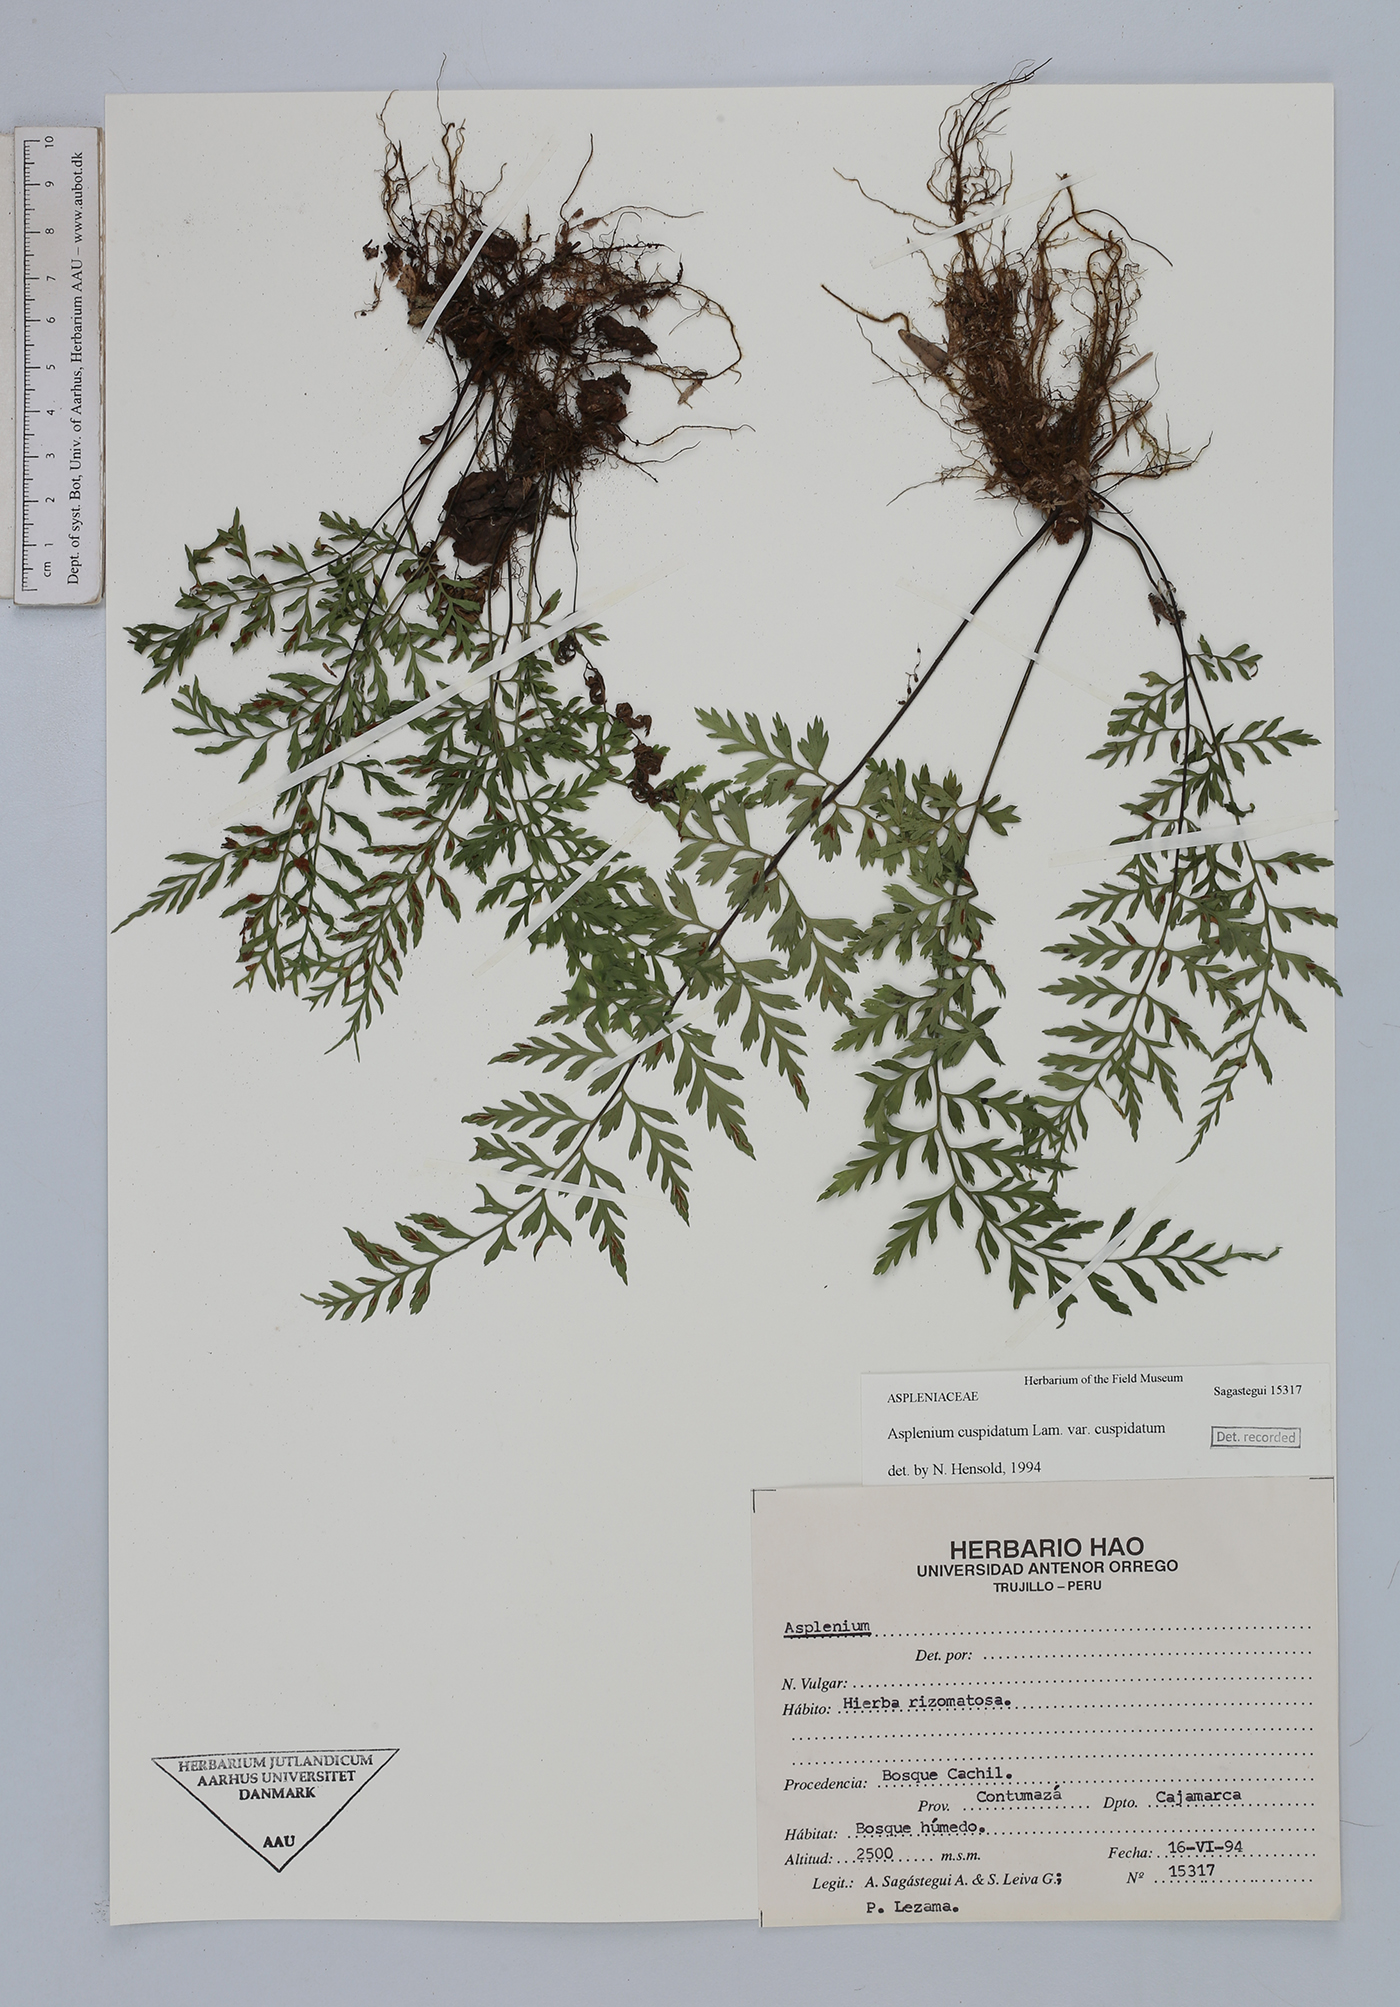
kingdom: Plantae
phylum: Tracheophyta
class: Polypodiopsida
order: Polypodiales
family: Aspleniaceae
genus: Asplenium
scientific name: Asplenium cuspidatum
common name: Eared spleenwort
